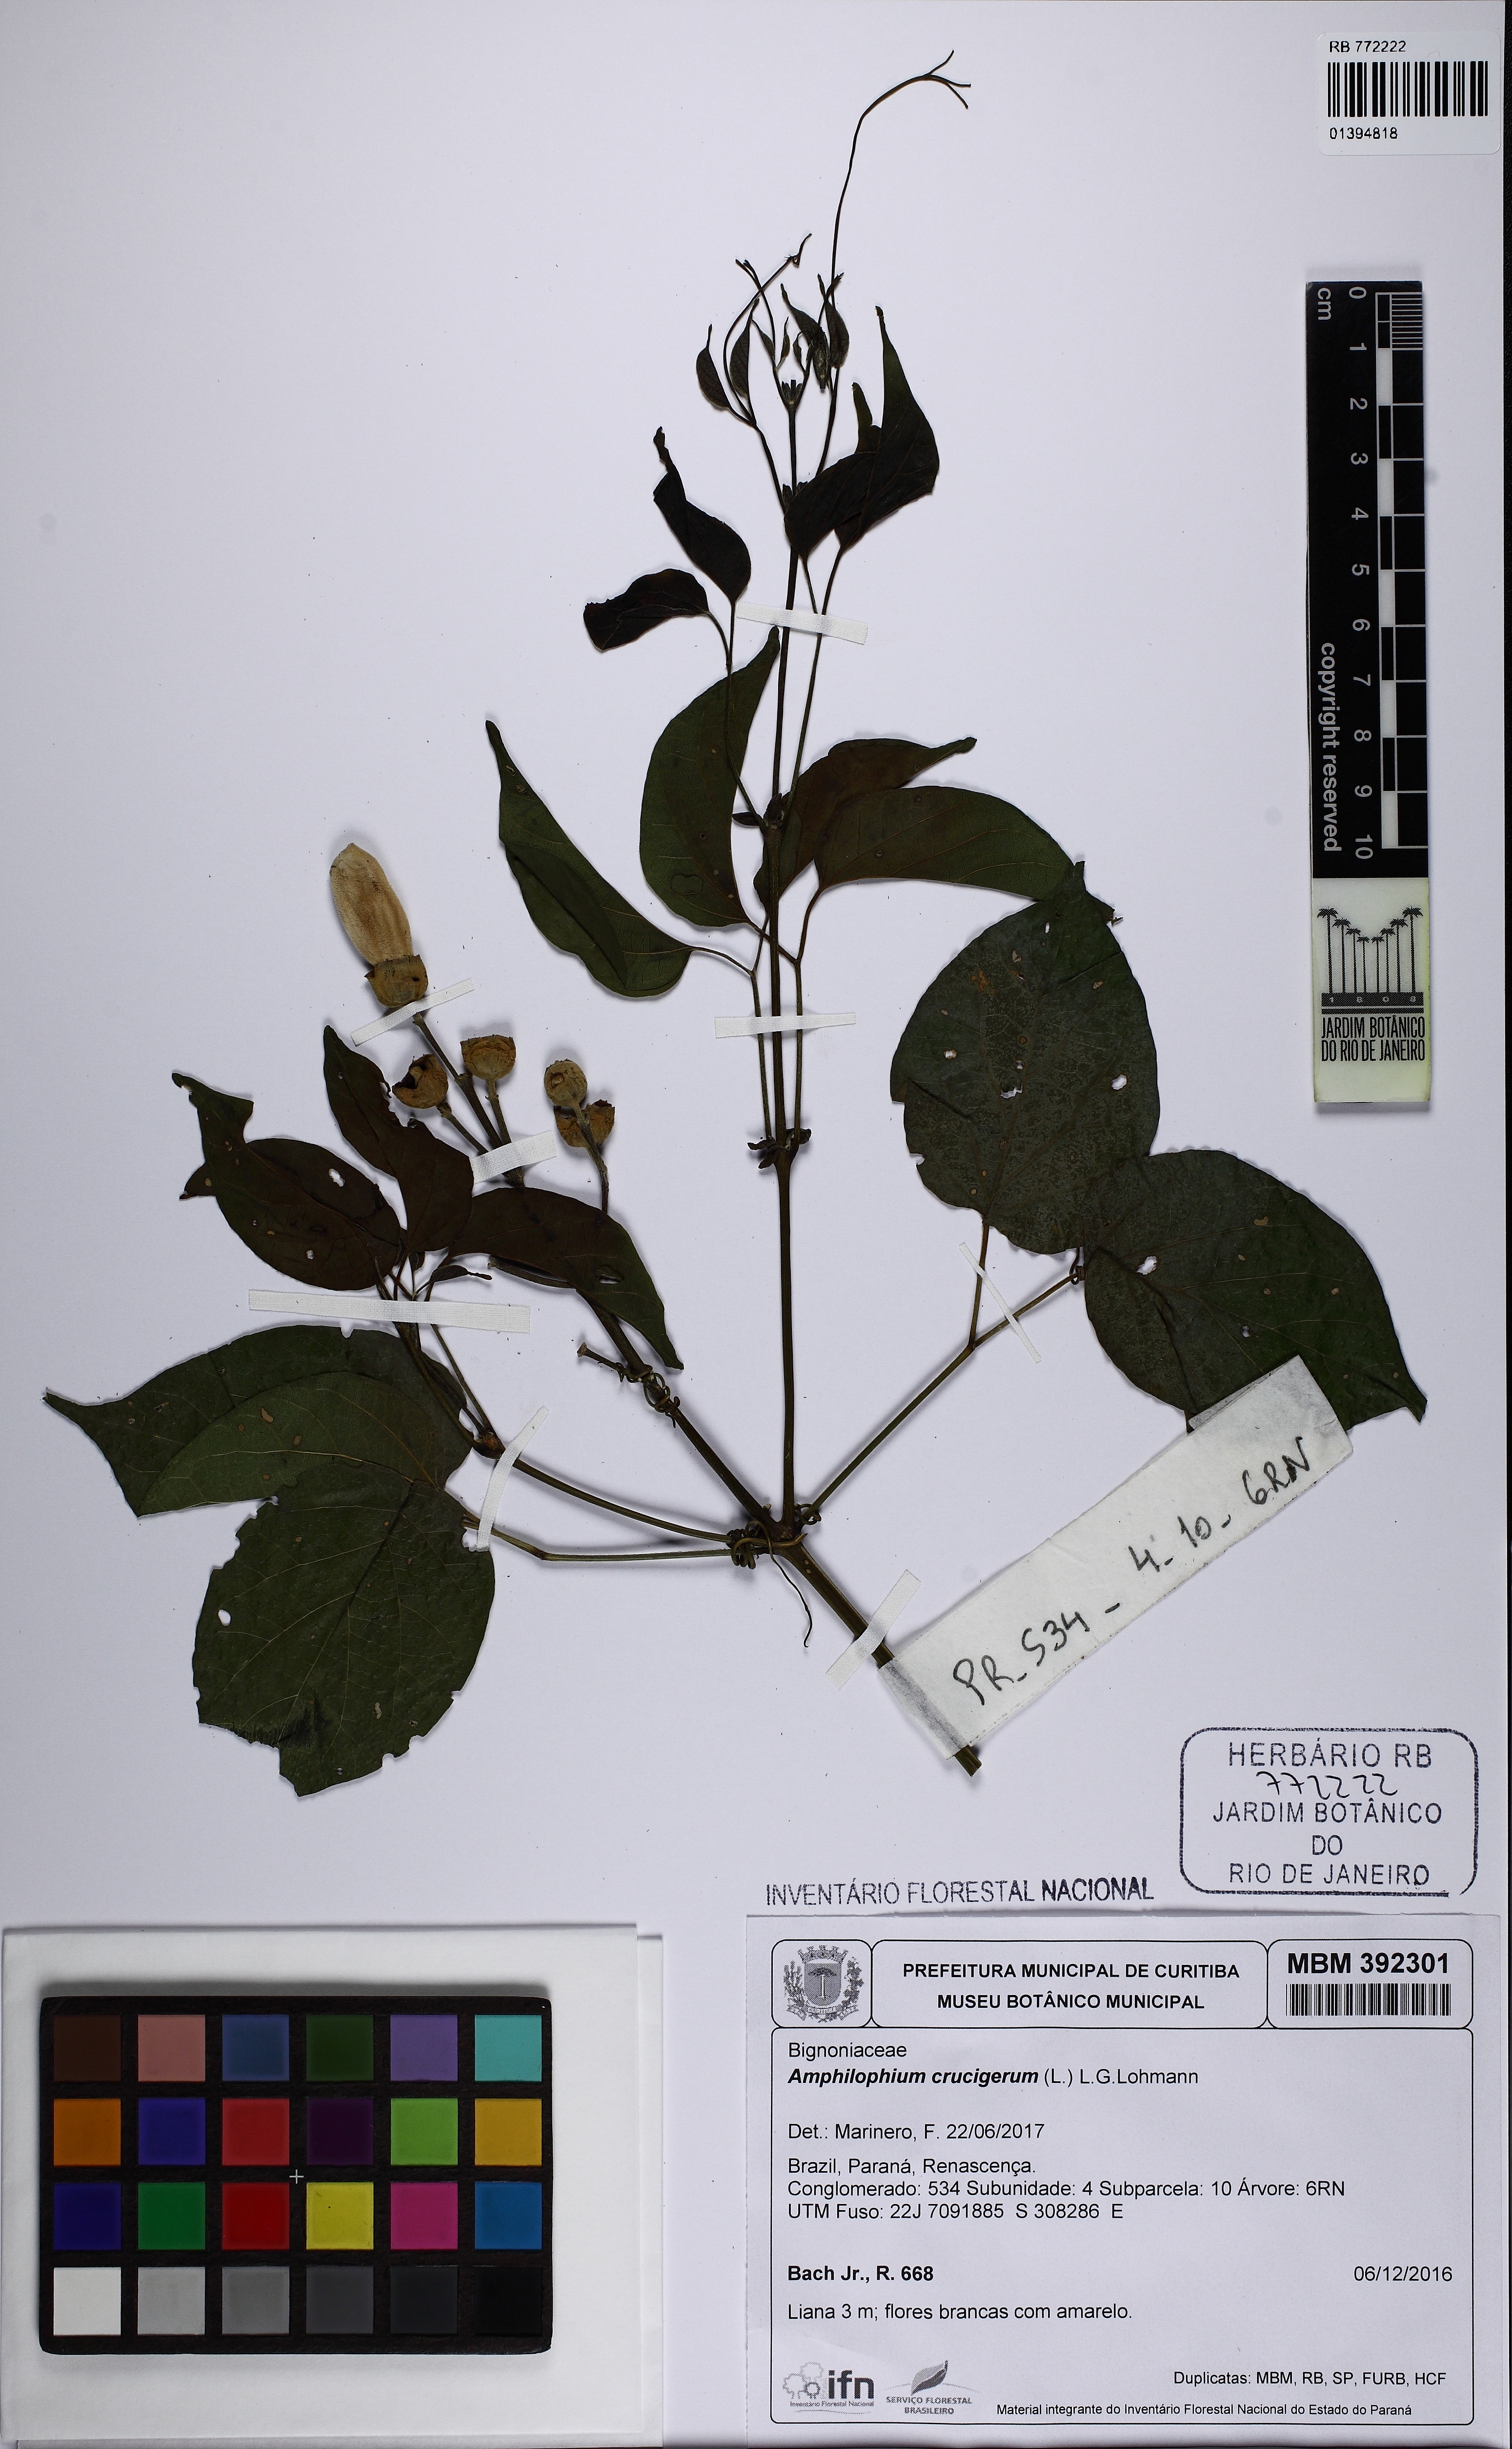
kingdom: Plantae
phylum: Tracheophyta
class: Magnoliopsida
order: Lamiales
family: Bignoniaceae
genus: Amphilophium
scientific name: Amphilophium crucigerum
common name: Monkey comb
